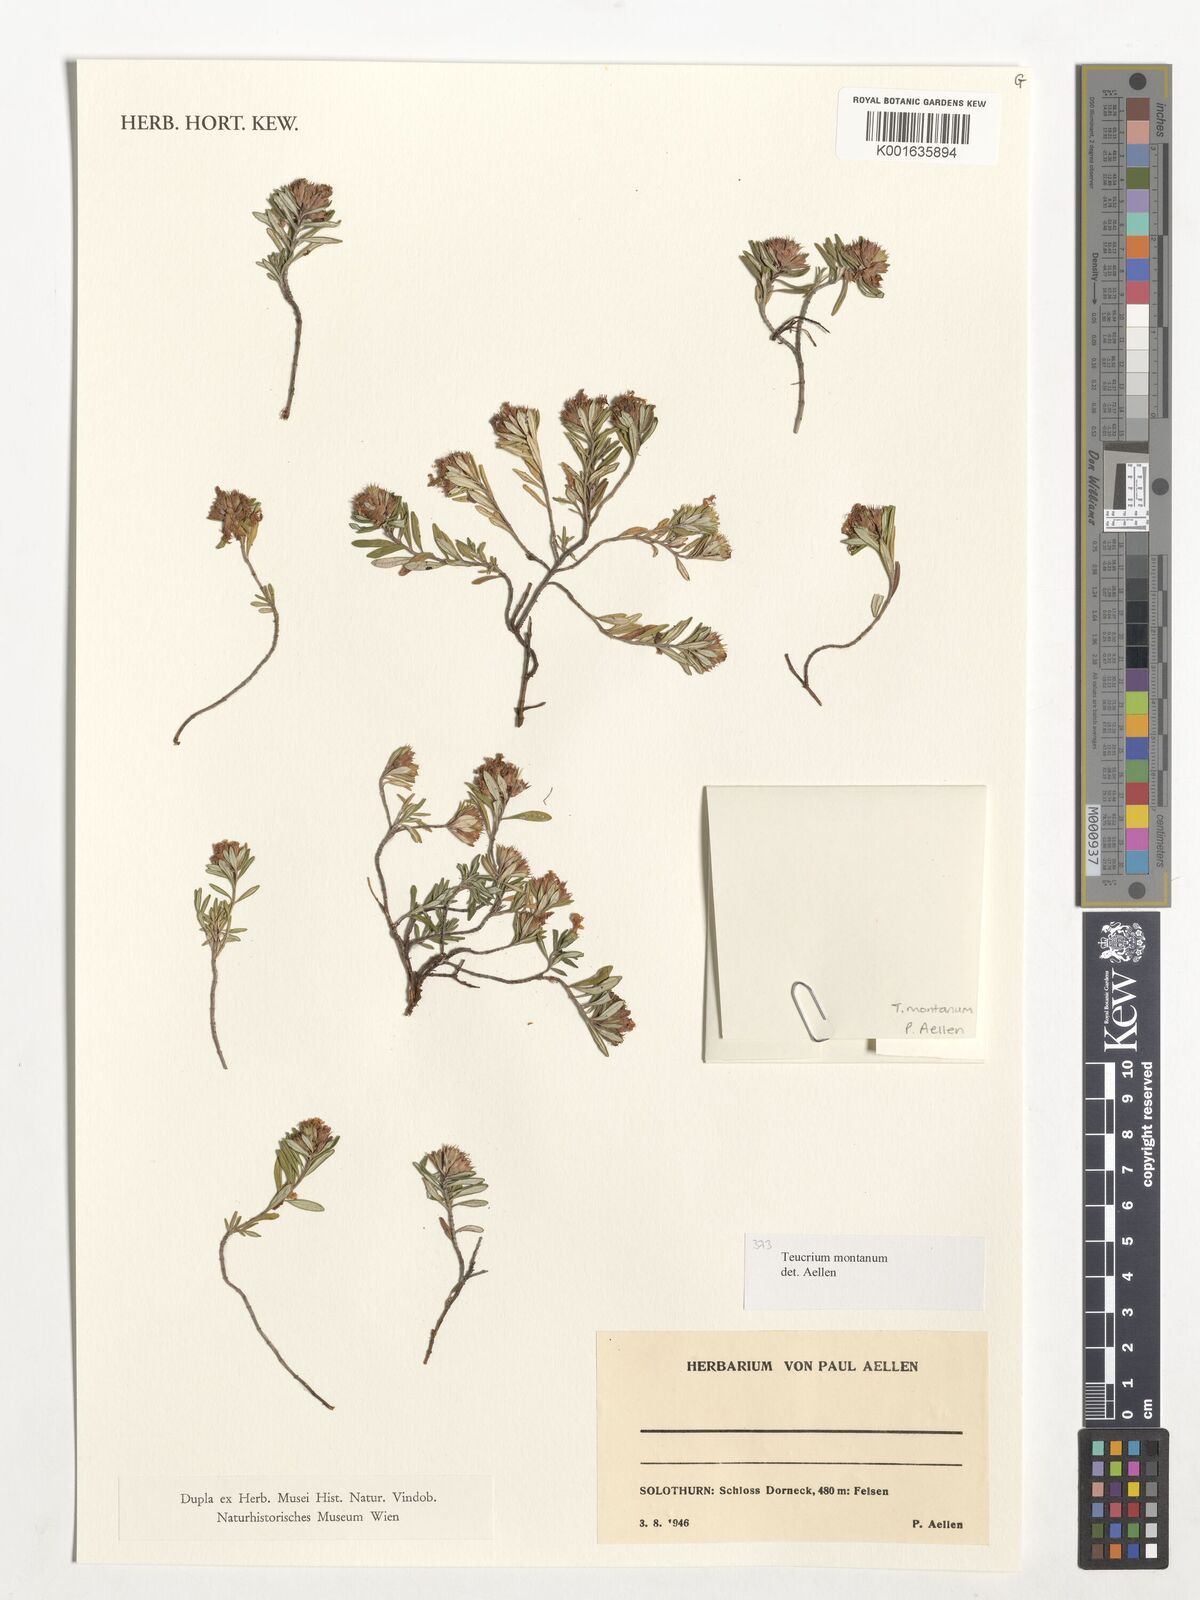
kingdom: Plantae
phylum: Tracheophyta
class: Magnoliopsida
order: Lamiales
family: Lamiaceae
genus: Teucrium
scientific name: Teucrium montanum
